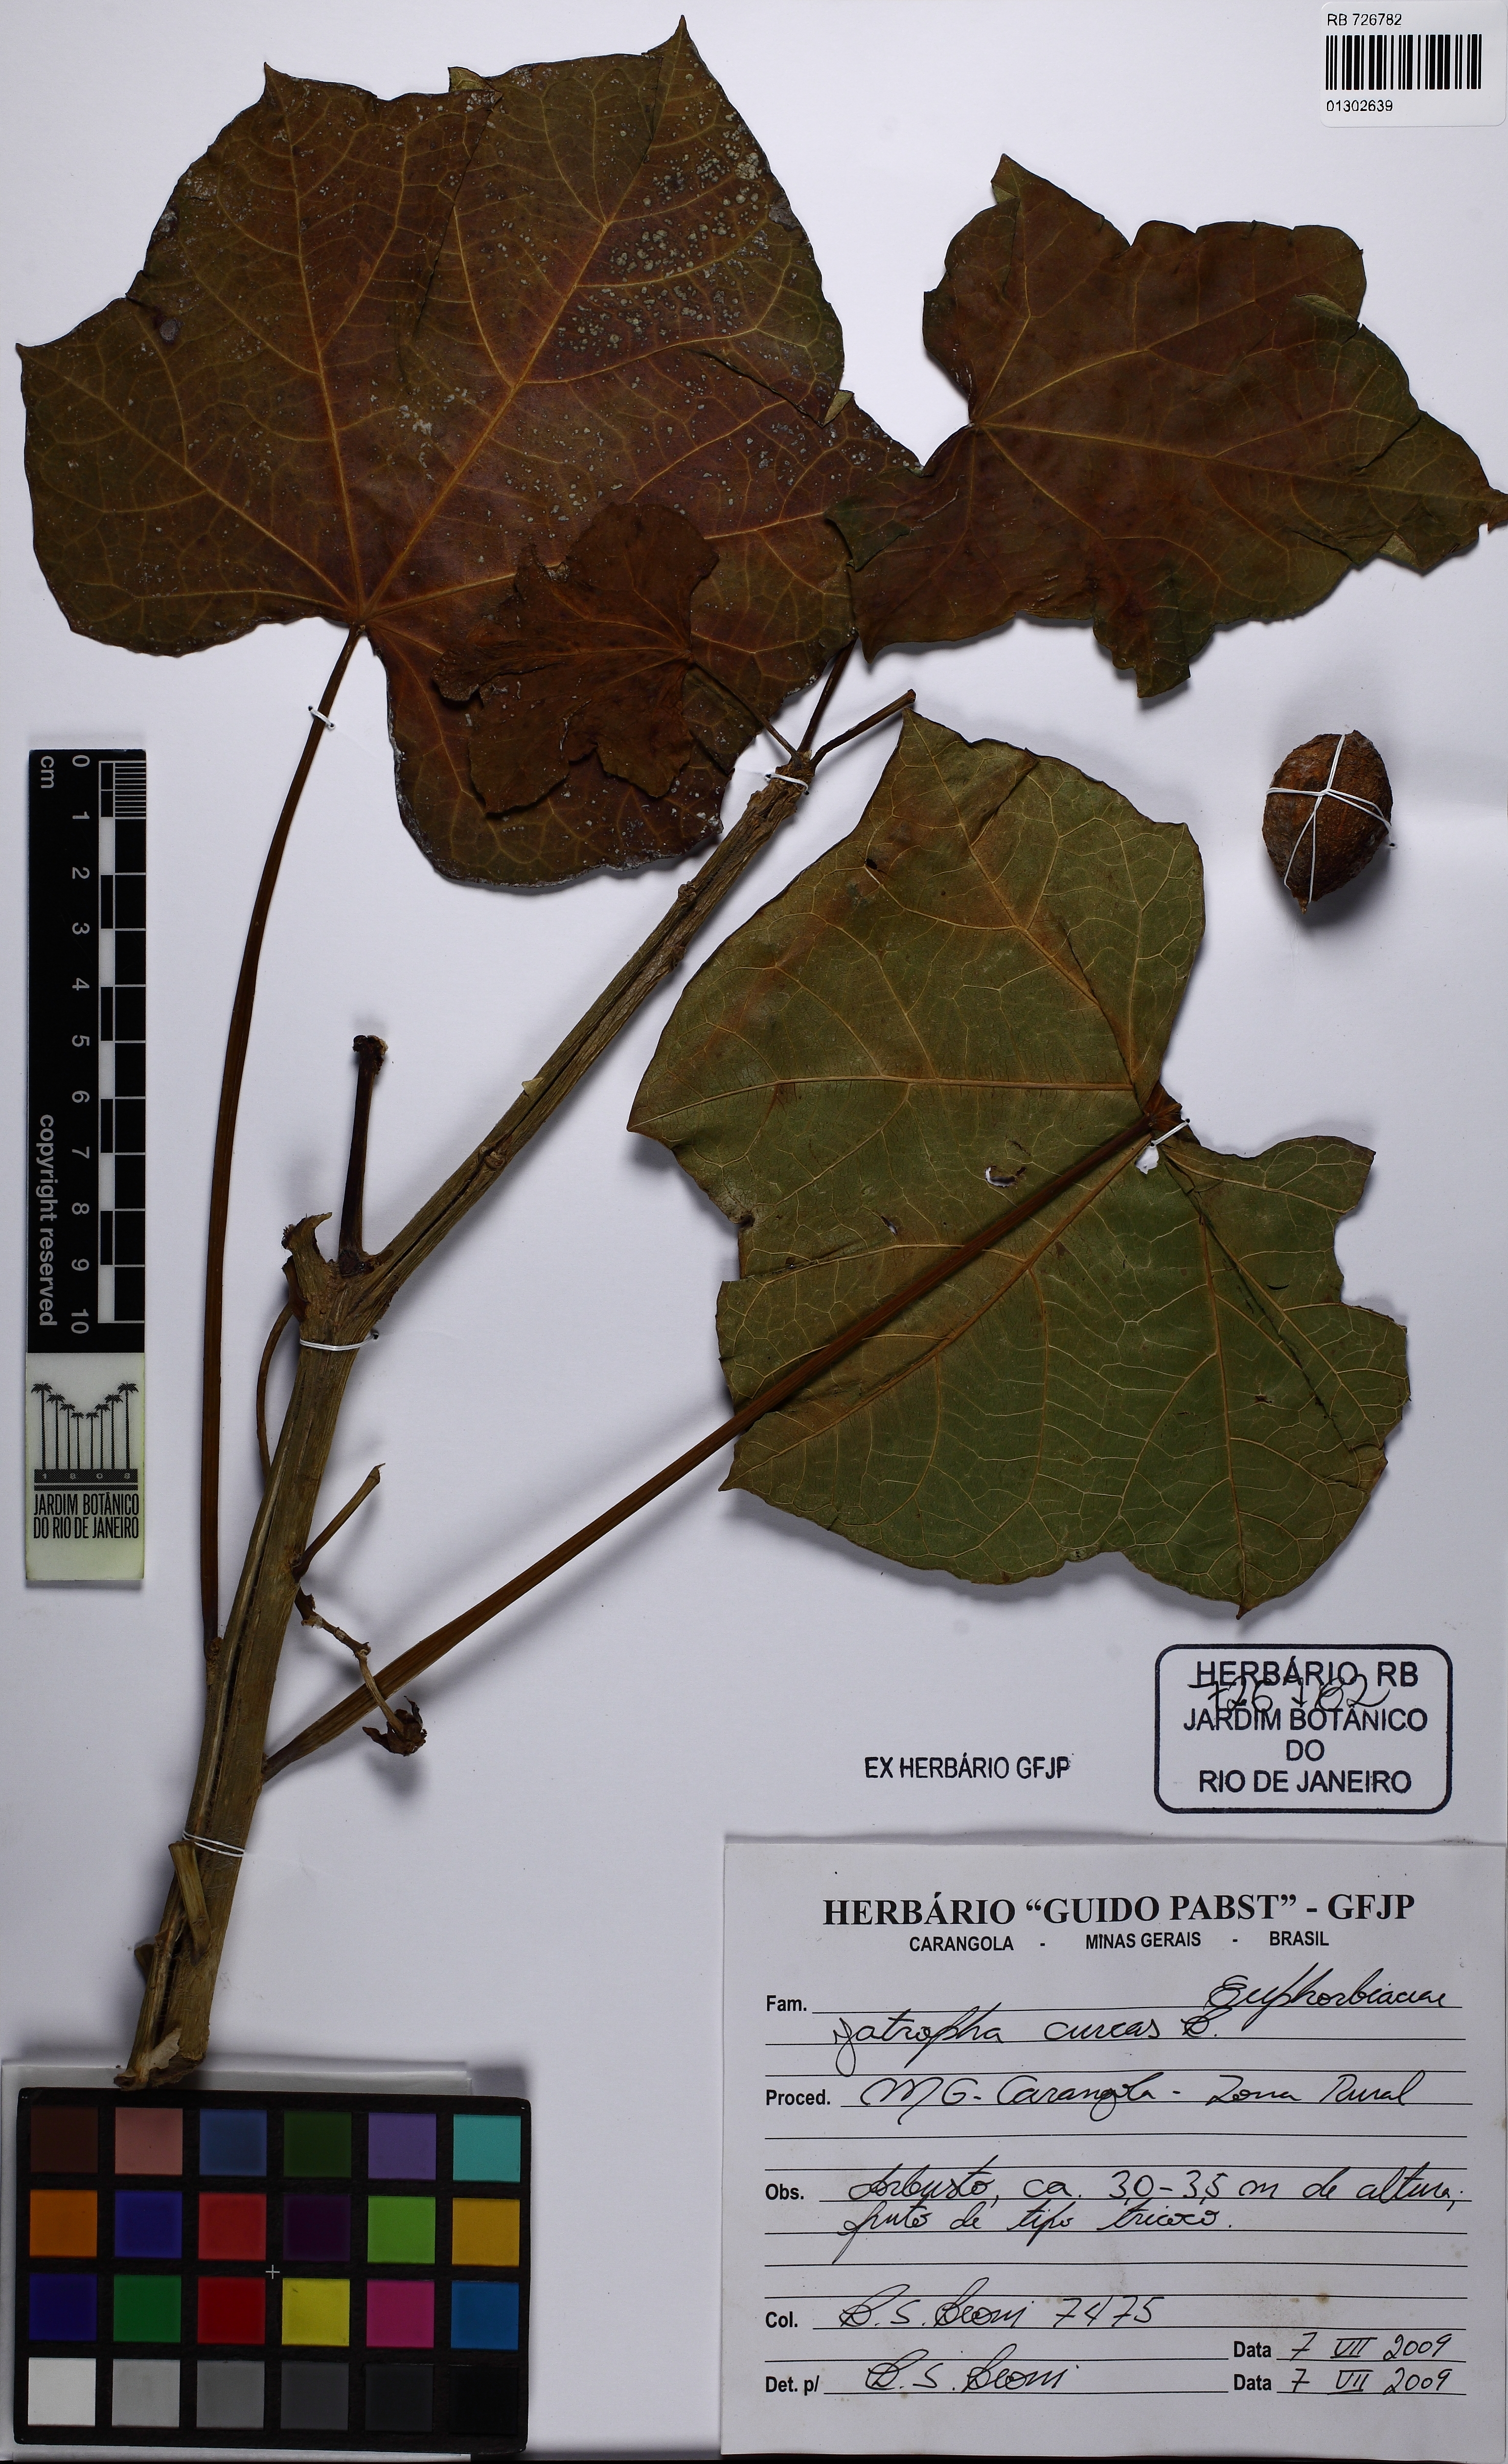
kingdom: Plantae
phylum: Tracheophyta
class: Magnoliopsida
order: Malpighiales
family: Euphorbiaceae
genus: Jatropha
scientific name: Jatropha mcvaughii
